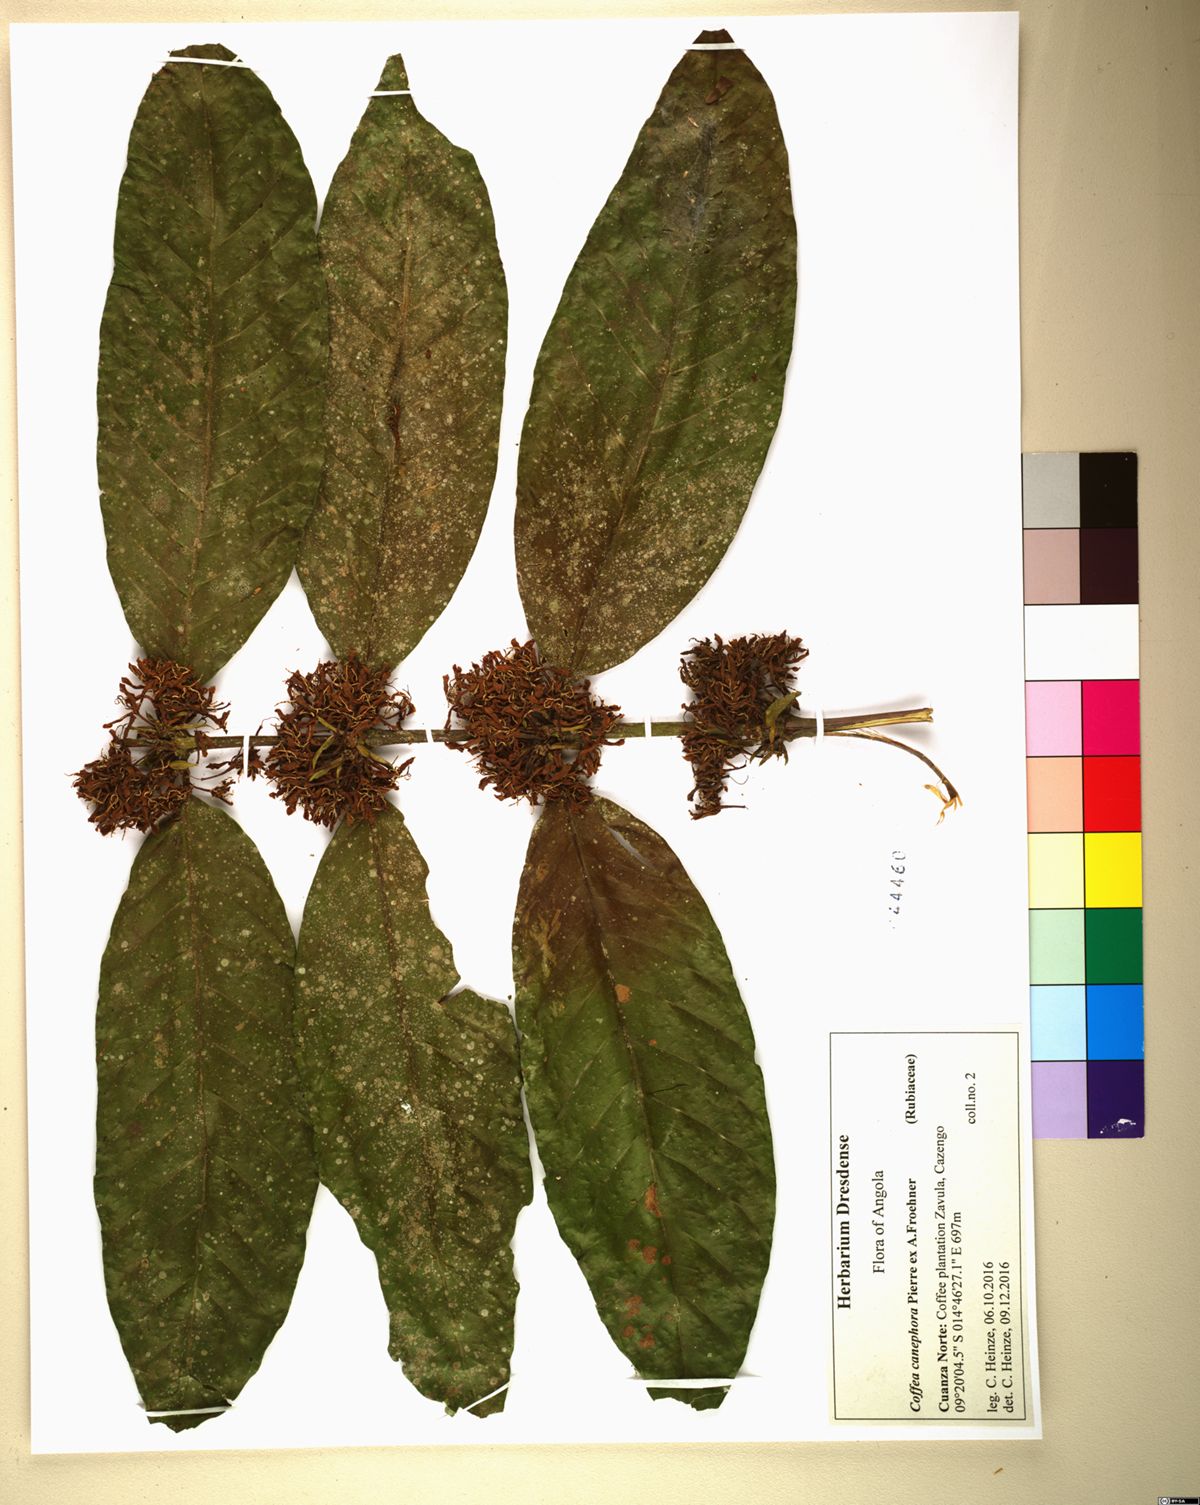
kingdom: Plantae
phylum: Tracheophyta
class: Magnoliopsida
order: Gentianales
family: Rubiaceae
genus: Coffea
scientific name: Coffea canephora
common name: Robusta coffee
